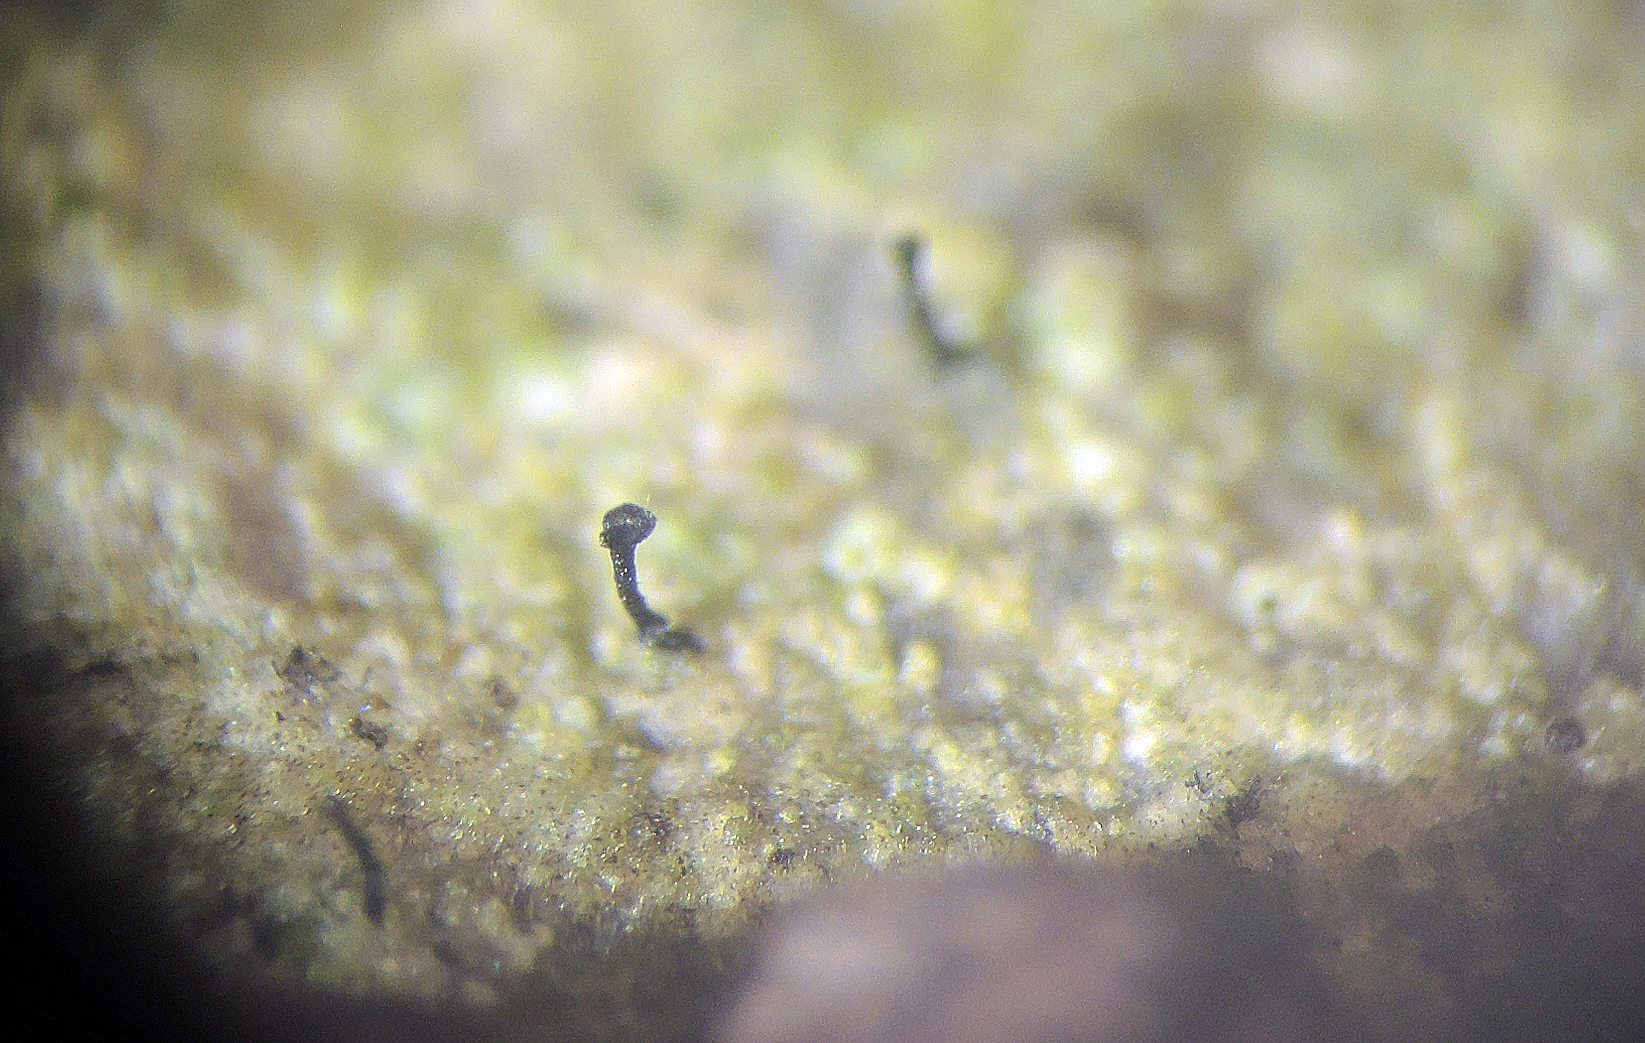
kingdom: Fungi
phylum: Ascomycota
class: Eurotiomycetes
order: Mycocaliciales
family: Mycocaliciaceae
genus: Stenocybe
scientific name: Stenocybe pullatula
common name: elle-nålesvamp
